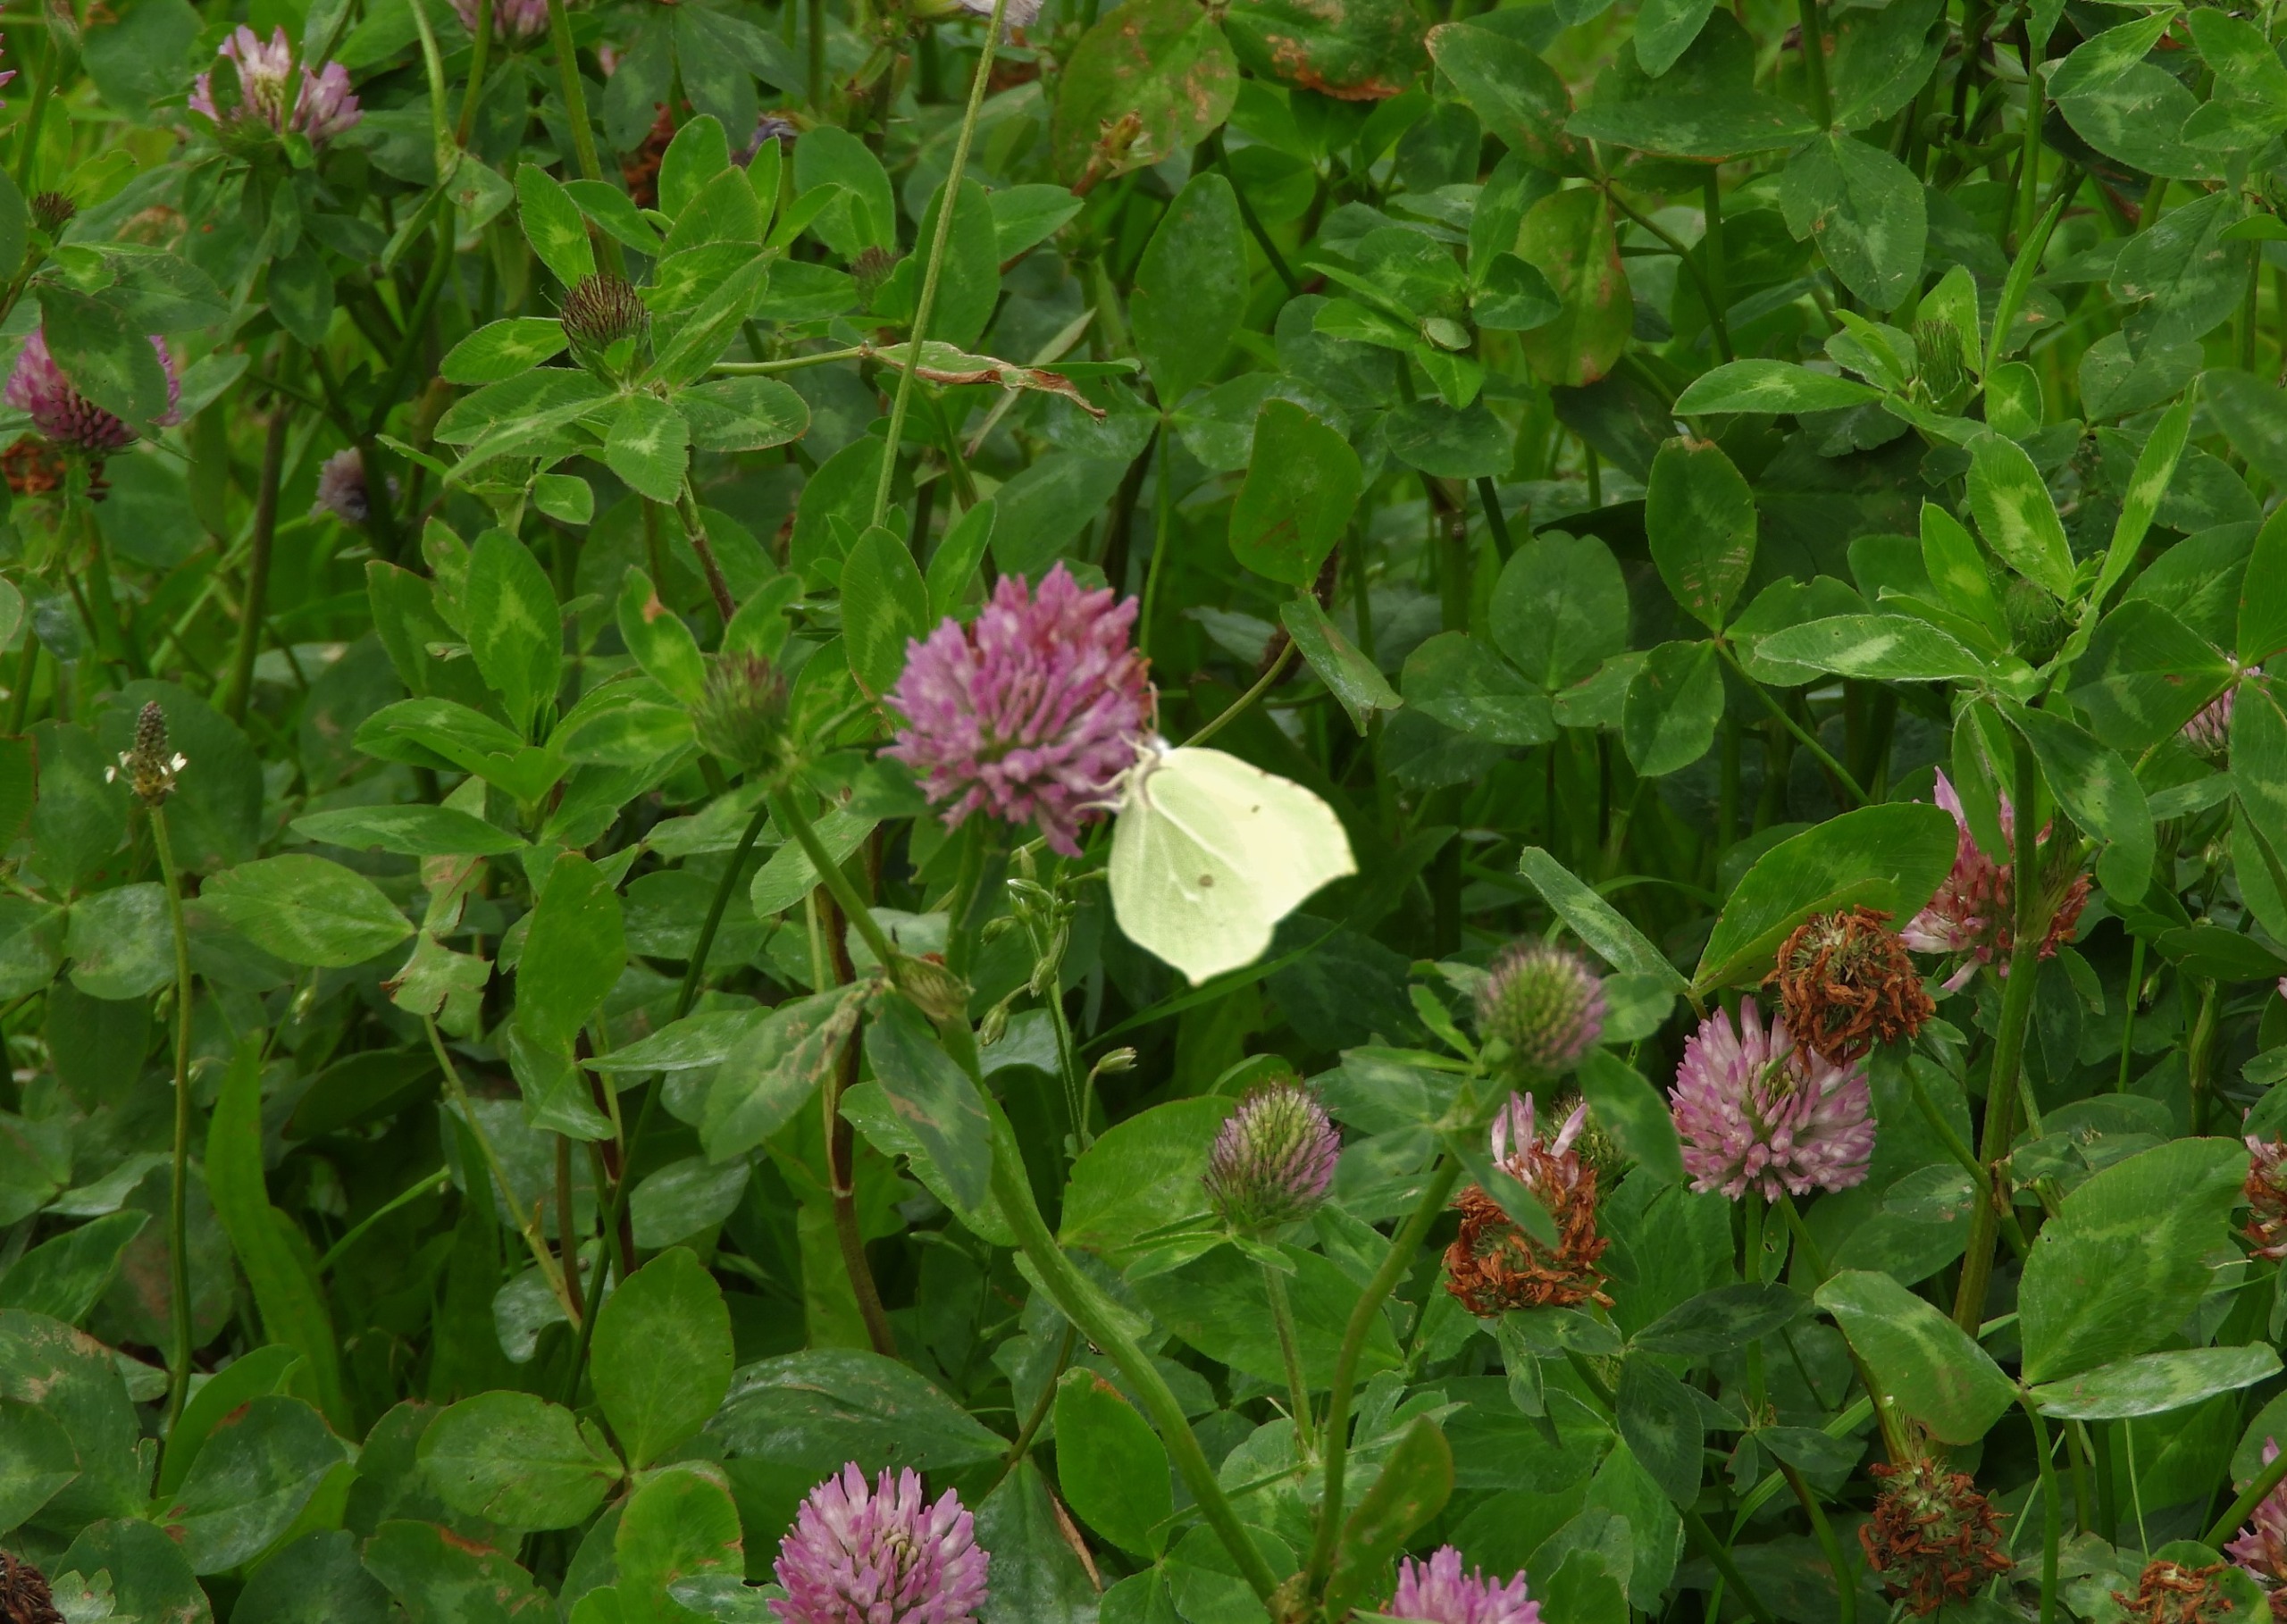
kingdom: Animalia
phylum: Arthropoda
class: Insecta
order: Lepidoptera
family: Pieridae
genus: Gonepteryx
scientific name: Gonepteryx rhamni
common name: Citronsommerfugl
